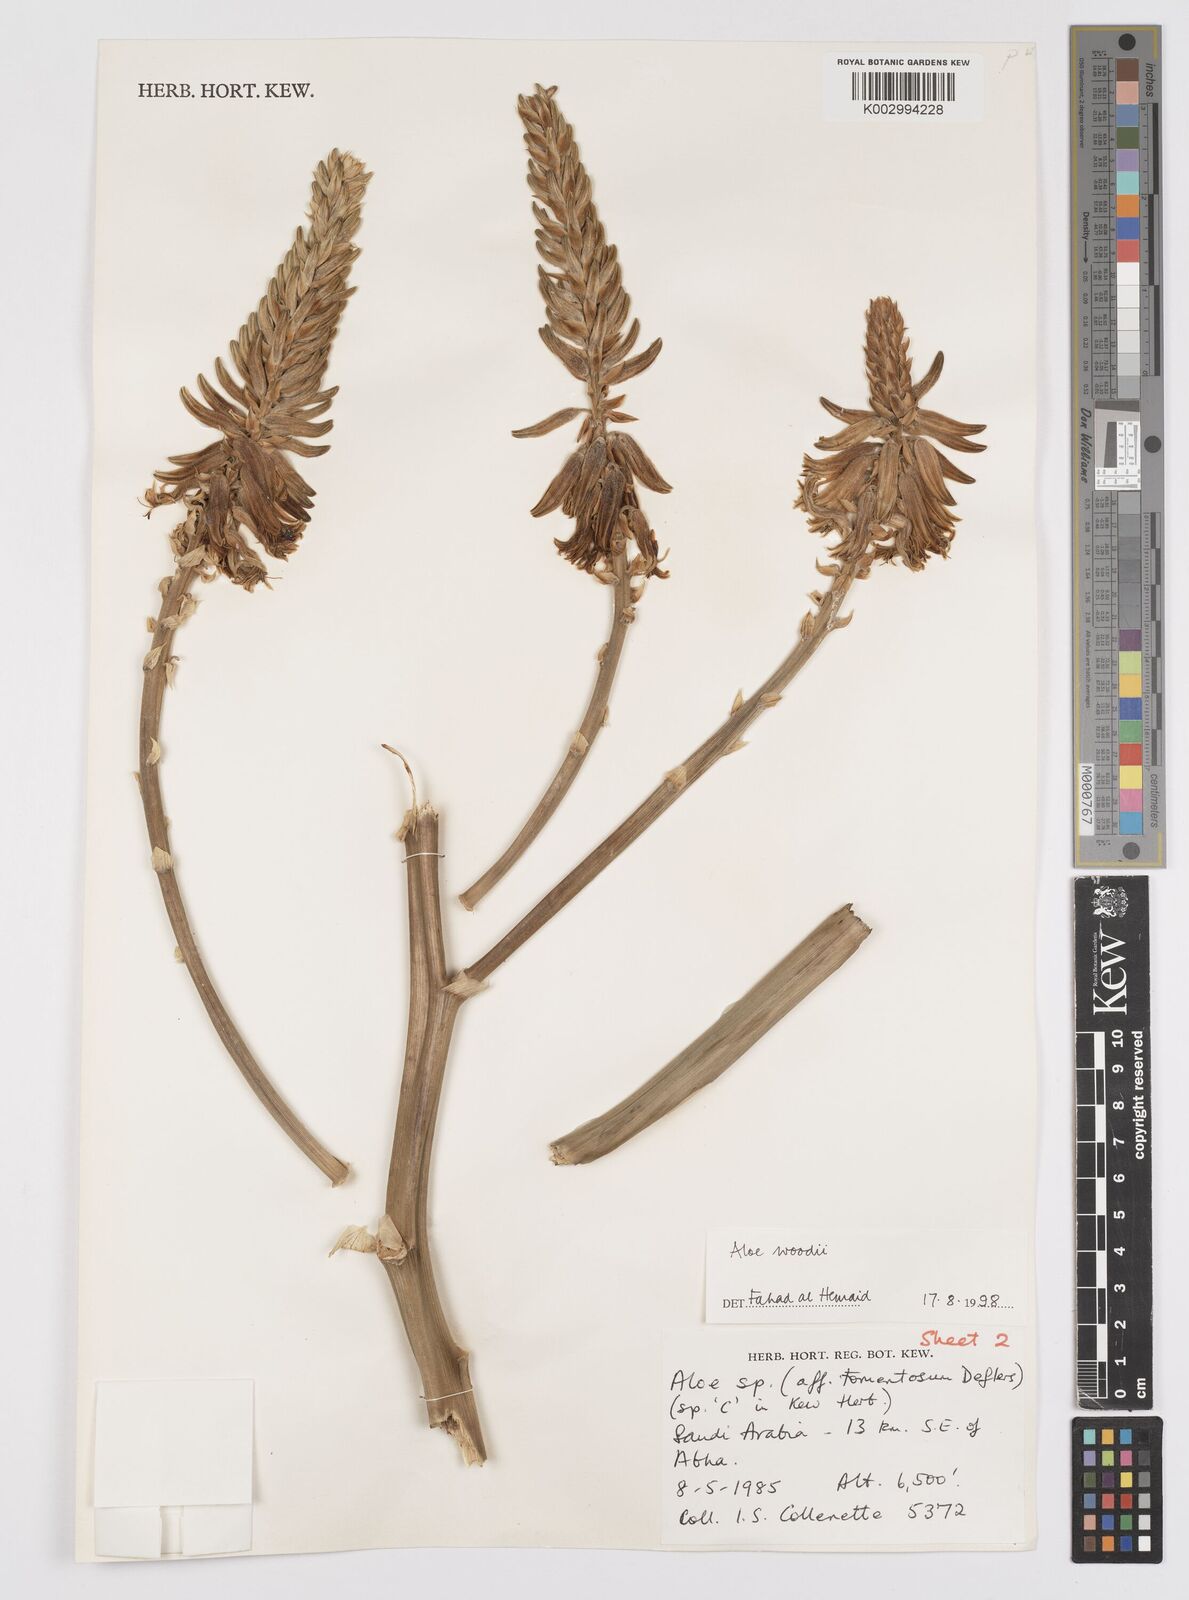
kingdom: Plantae
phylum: Tracheophyta
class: Liliopsida
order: Asparagales
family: Asphodelaceae
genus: Aloe
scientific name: Aloe woodii
